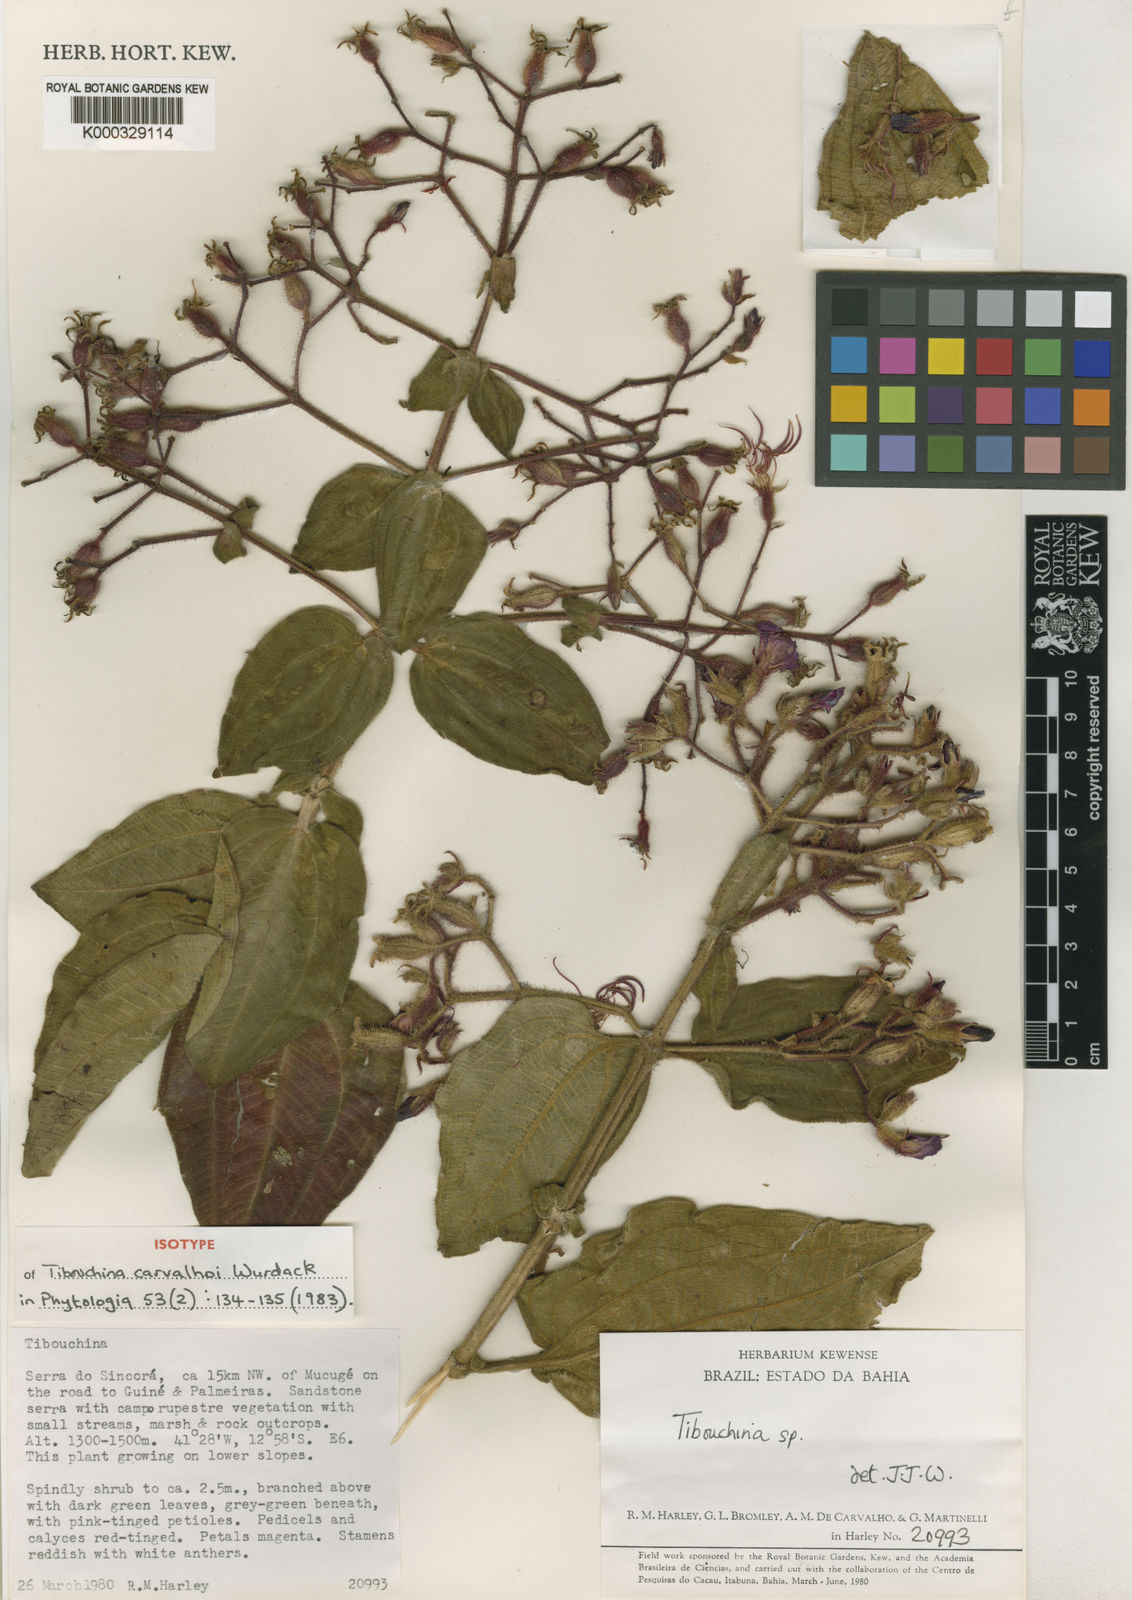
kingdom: Plantae
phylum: Tracheophyta
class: Magnoliopsida
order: Myrtales
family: Melastomataceae
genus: Pleroma
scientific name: Pleroma carvalhoi
